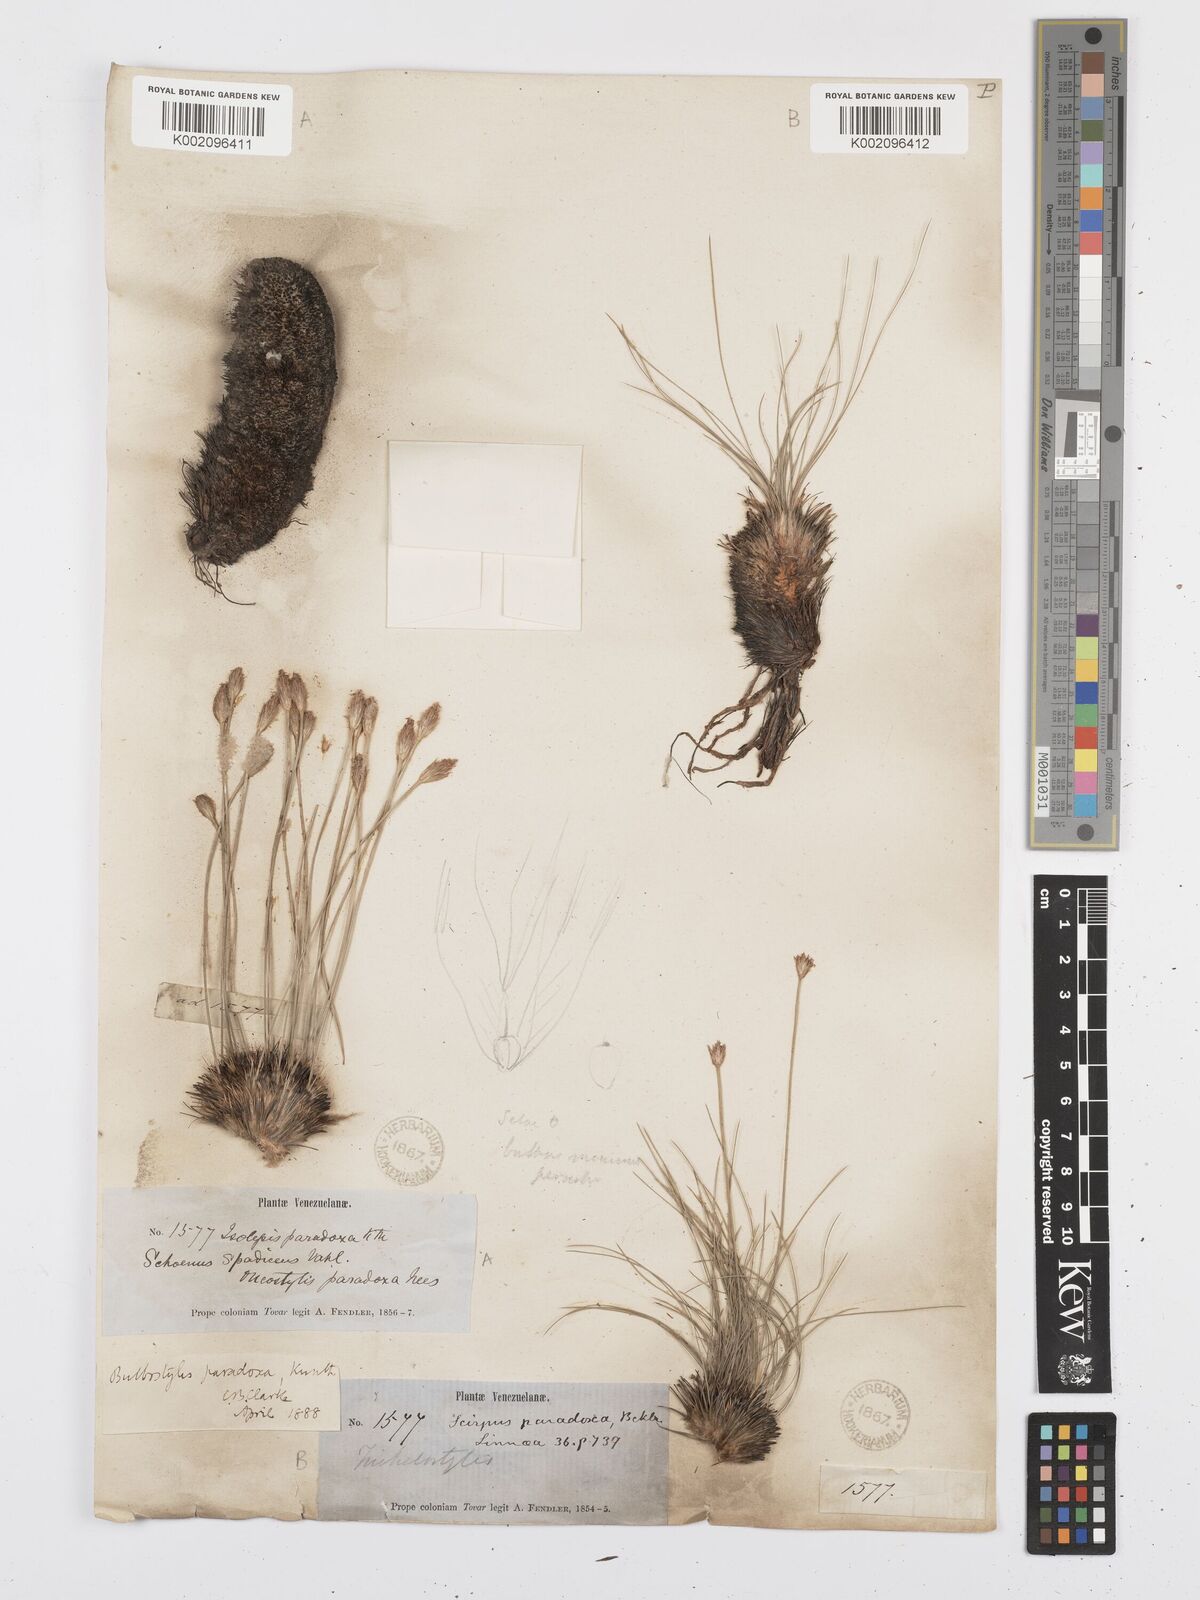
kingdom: Plantae
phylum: Tracheophyta
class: Liliopsida
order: Poales
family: Cyperaceae
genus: Bulbostylis
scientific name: Bulbostylis
